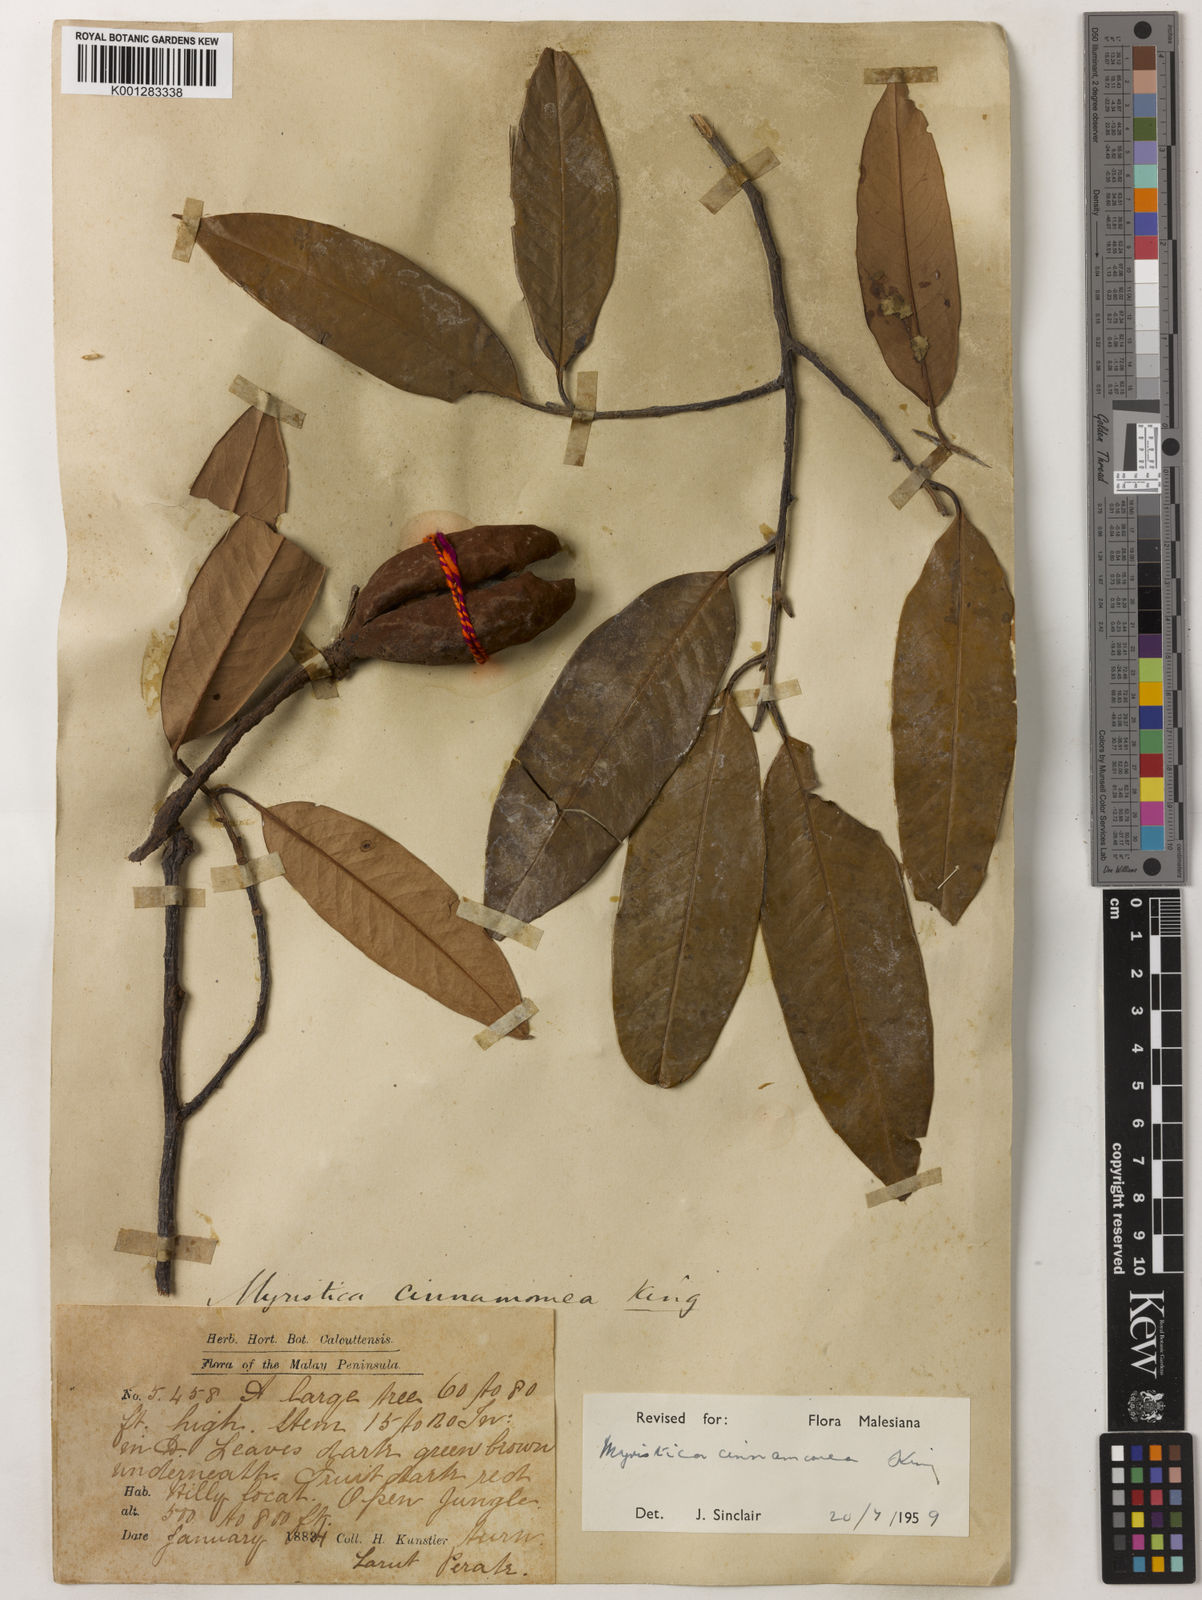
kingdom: Plantae
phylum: Tracheophyta
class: Magnoliopsida
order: Magnoliales
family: Myristicaceae
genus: Myristica
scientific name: Myristica cinnamomea
